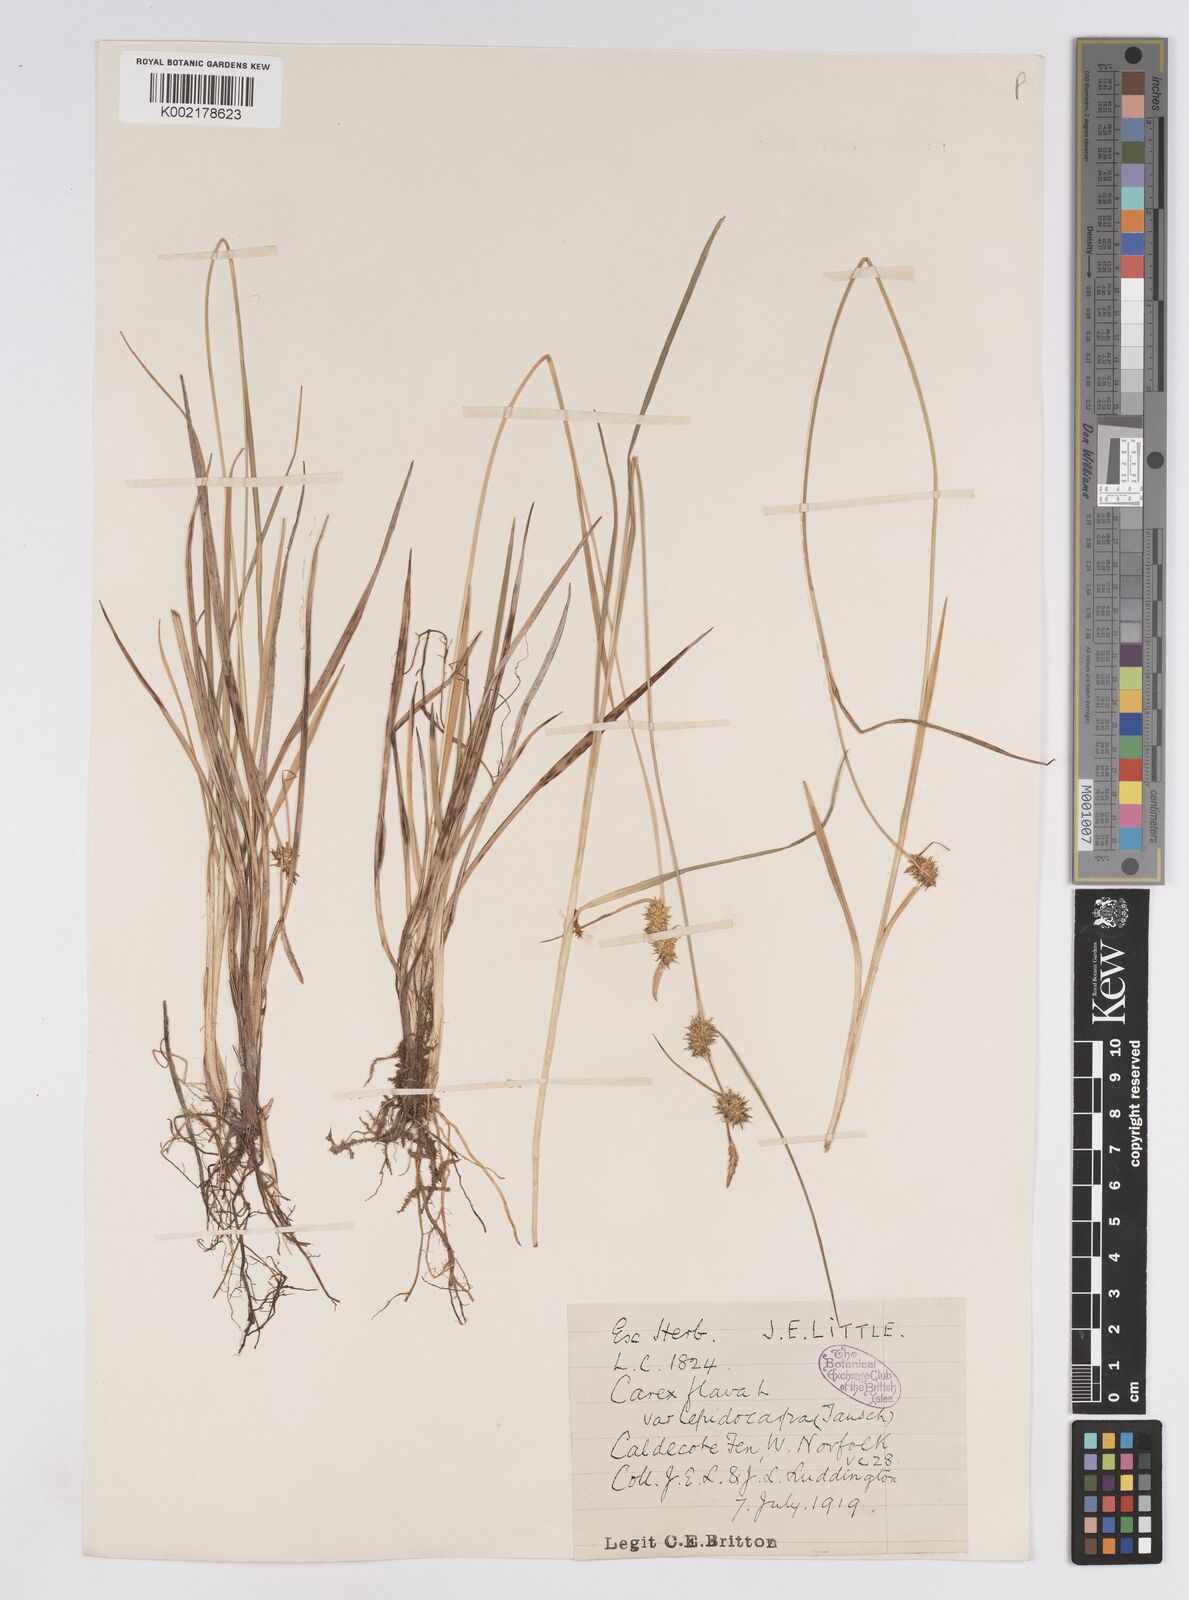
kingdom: Plantae
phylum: Tracheophyta
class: Liliopsida
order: Poales
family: Cyperaceae
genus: Carex
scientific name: Carex lepidocarpa
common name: Long-stalked yellow-sedge
